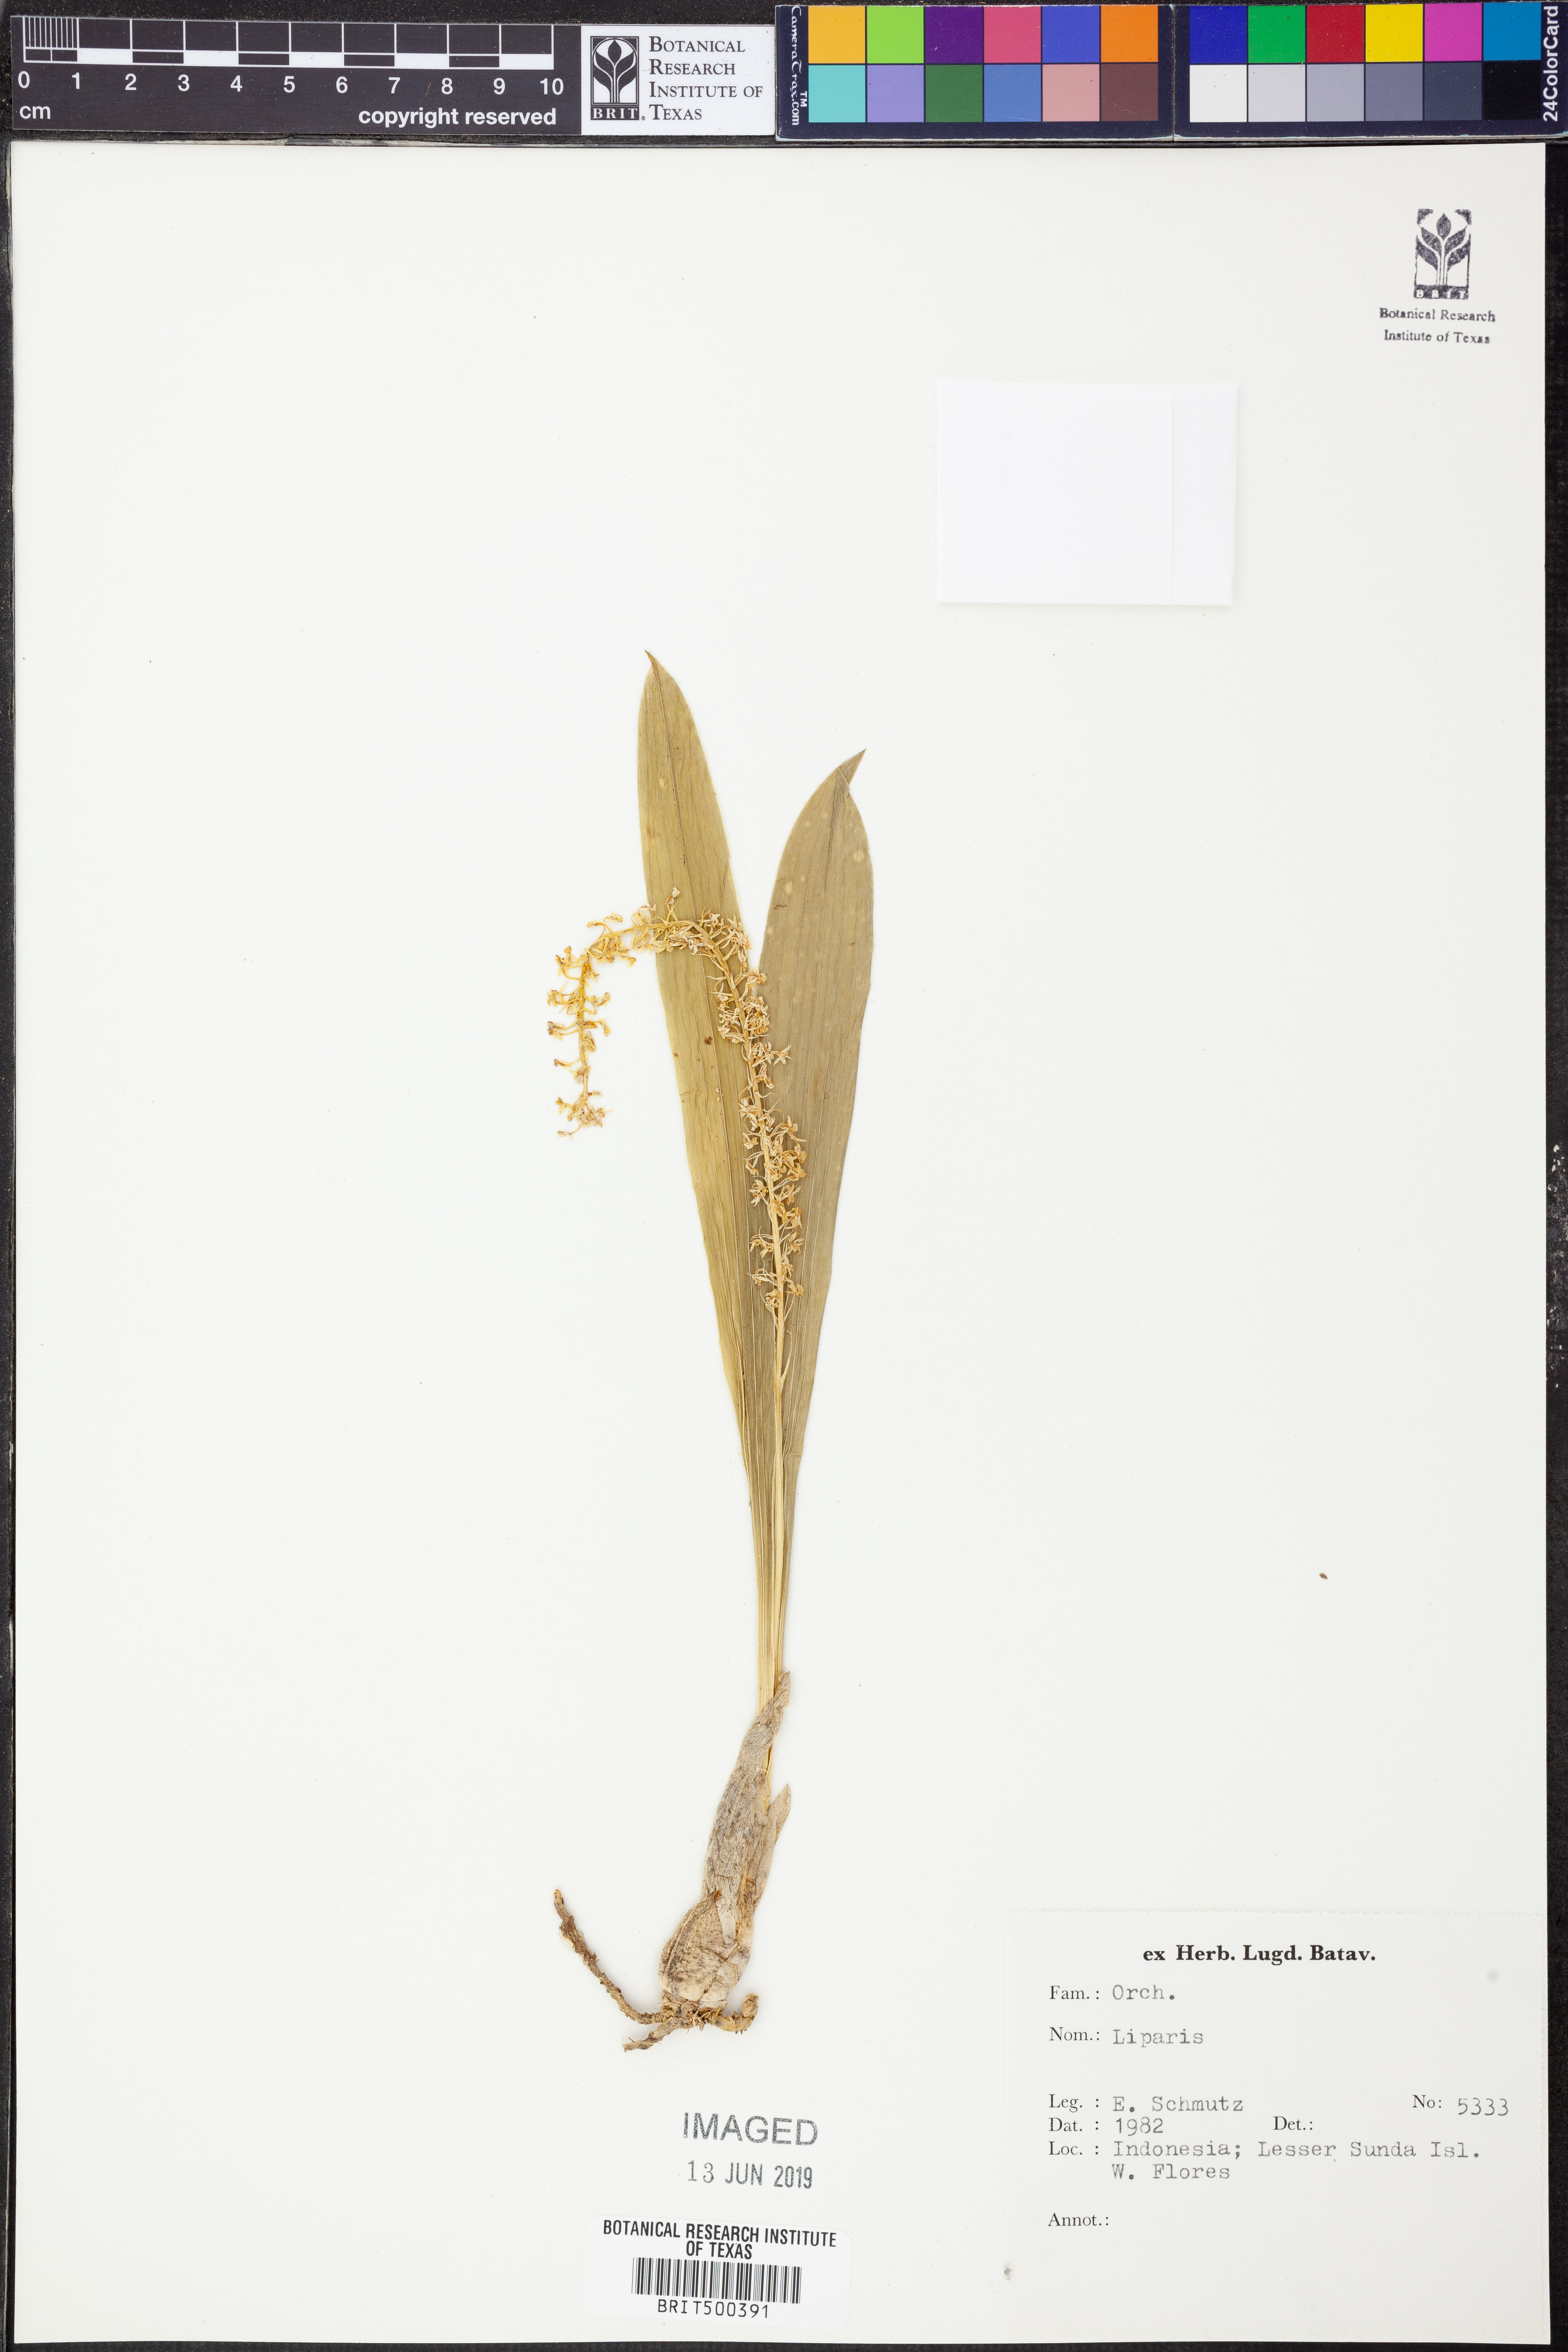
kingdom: Plantae
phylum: Tracheophyta
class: Liliopsida
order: Asparagales
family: Orchidaceae
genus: Liparis
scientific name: Liparis
